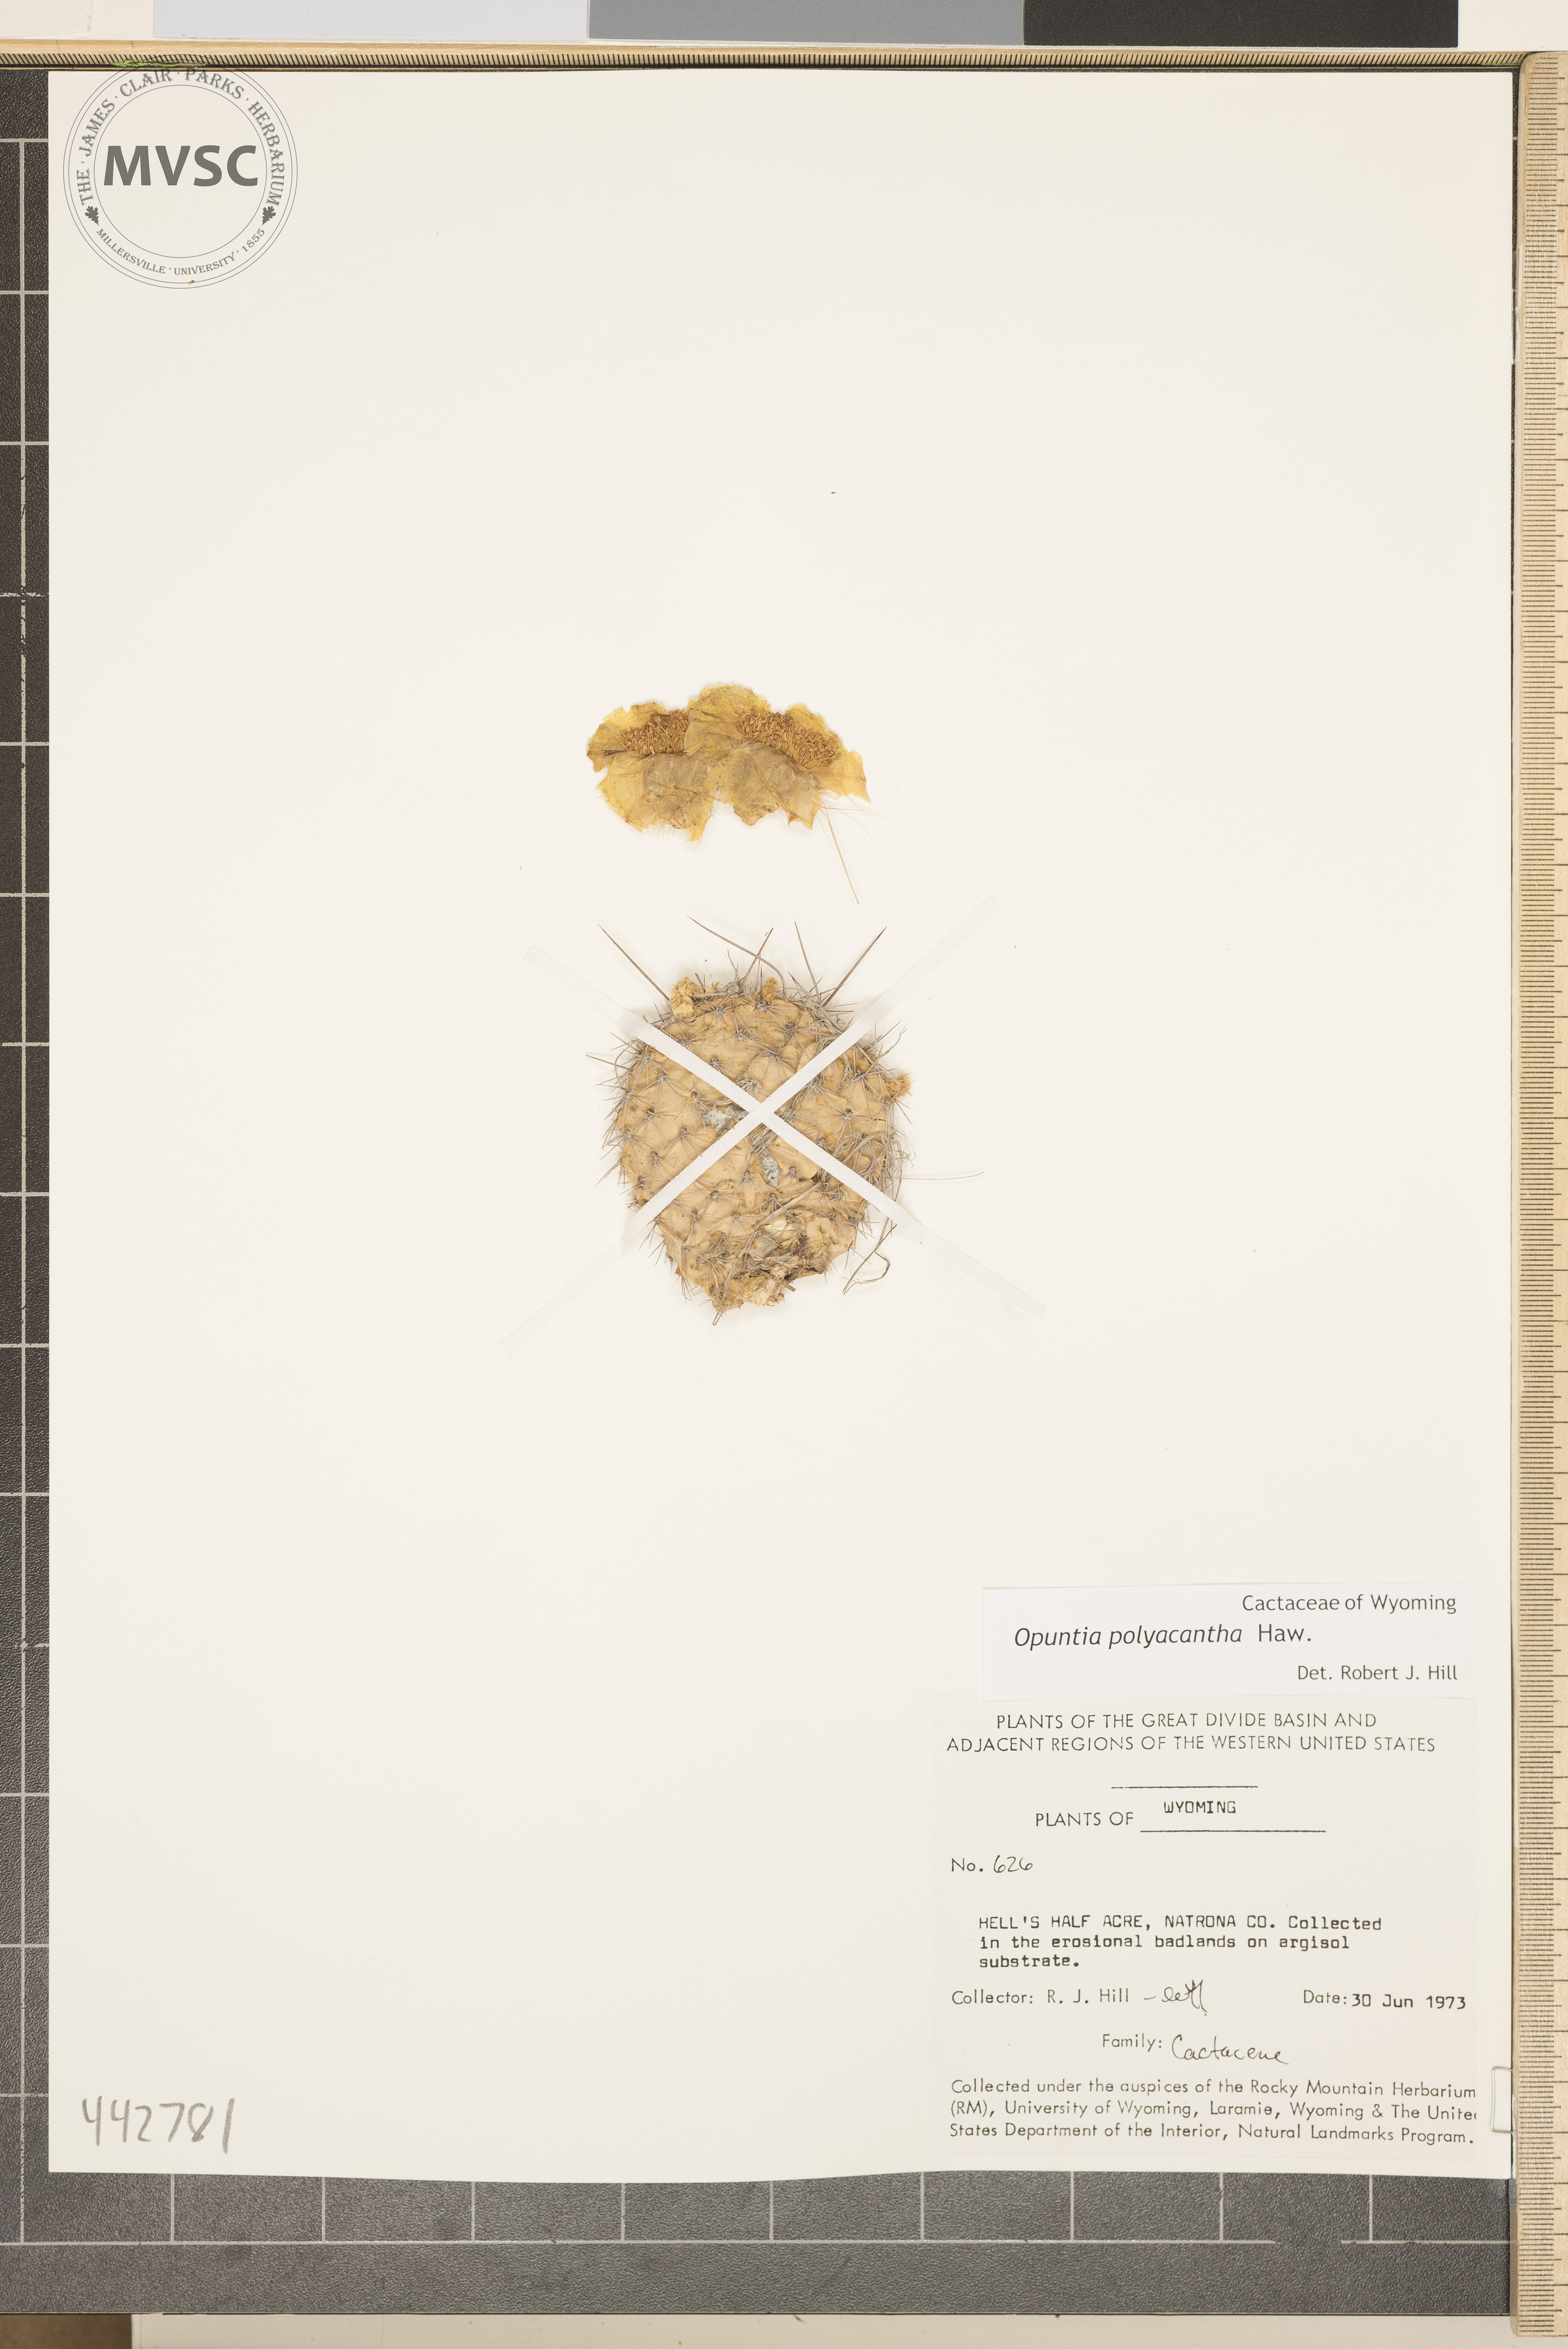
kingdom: Plantae
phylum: Tracheophyta
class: Magnoliopsida
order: Caryophyllales
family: Cactaceae
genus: Opuntia
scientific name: Opuntia polyacantha
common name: Plains prickly-pear
